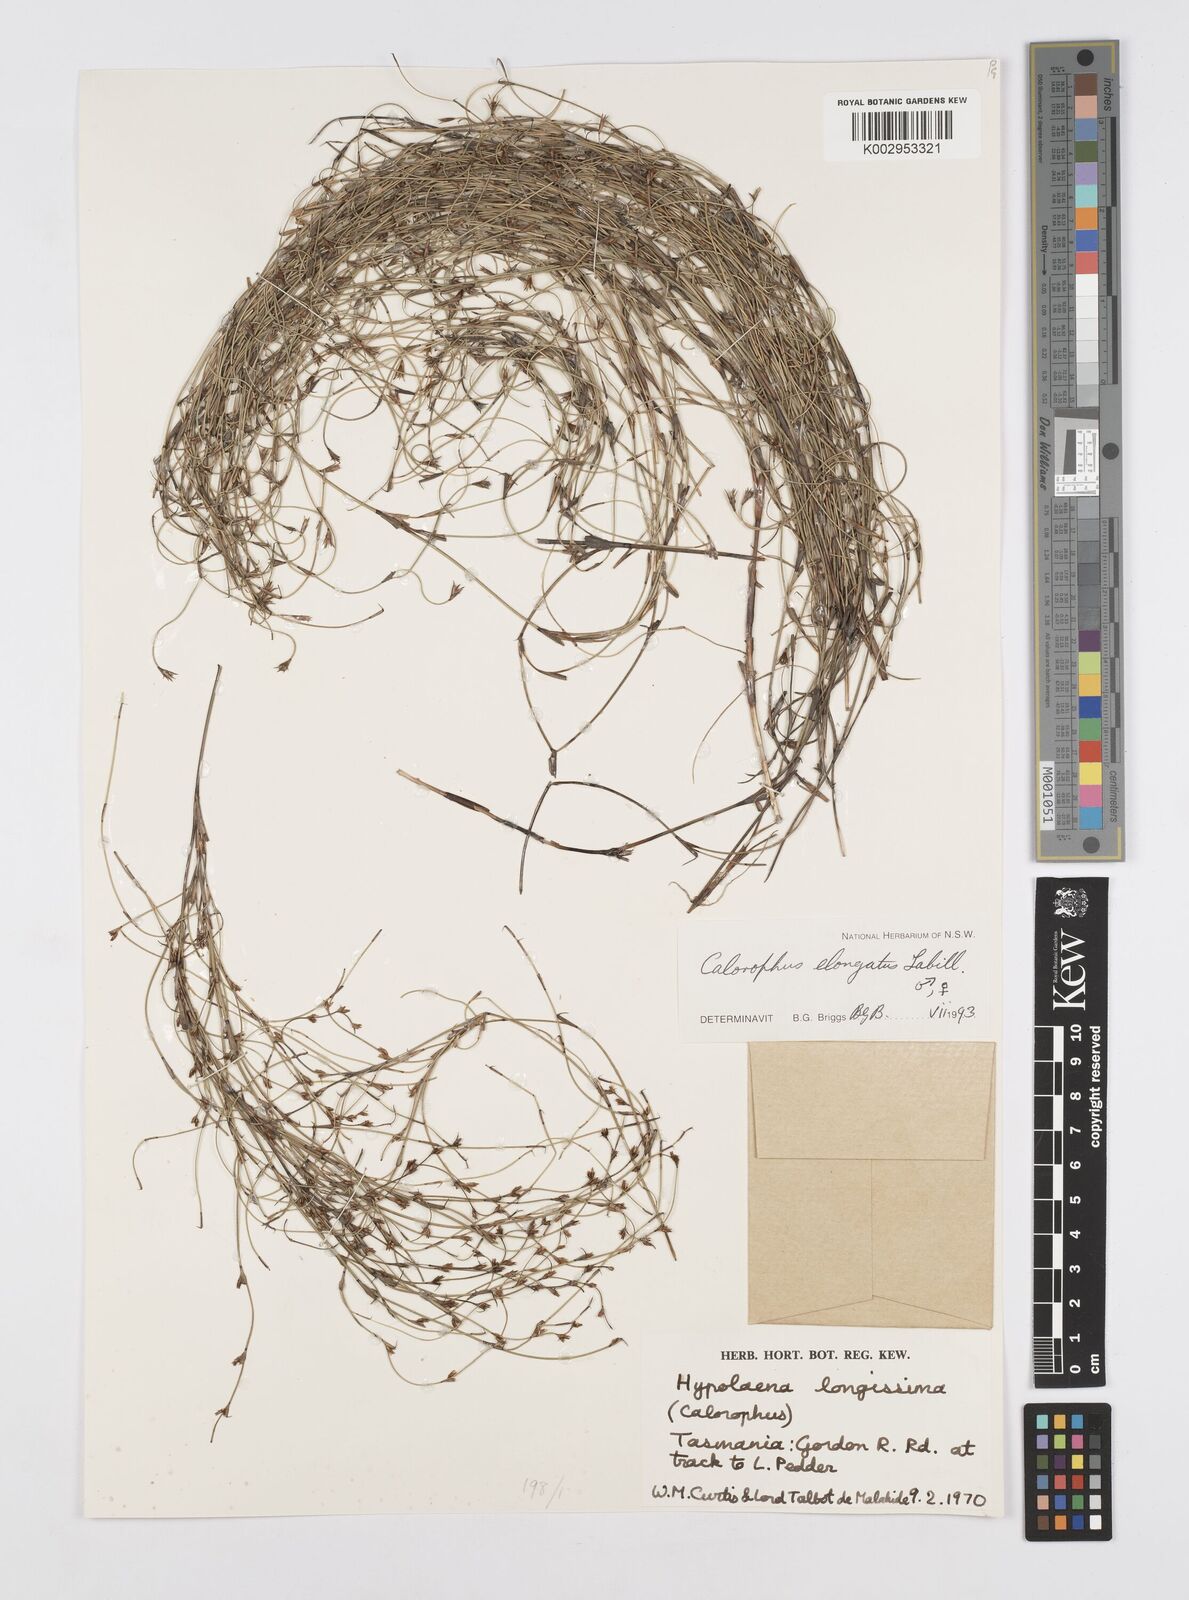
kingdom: Plantae
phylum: Tracheophyta
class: Liliopsida
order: Poales
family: Restionaceae
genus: Calorophus
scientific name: Calorophus elongatus
